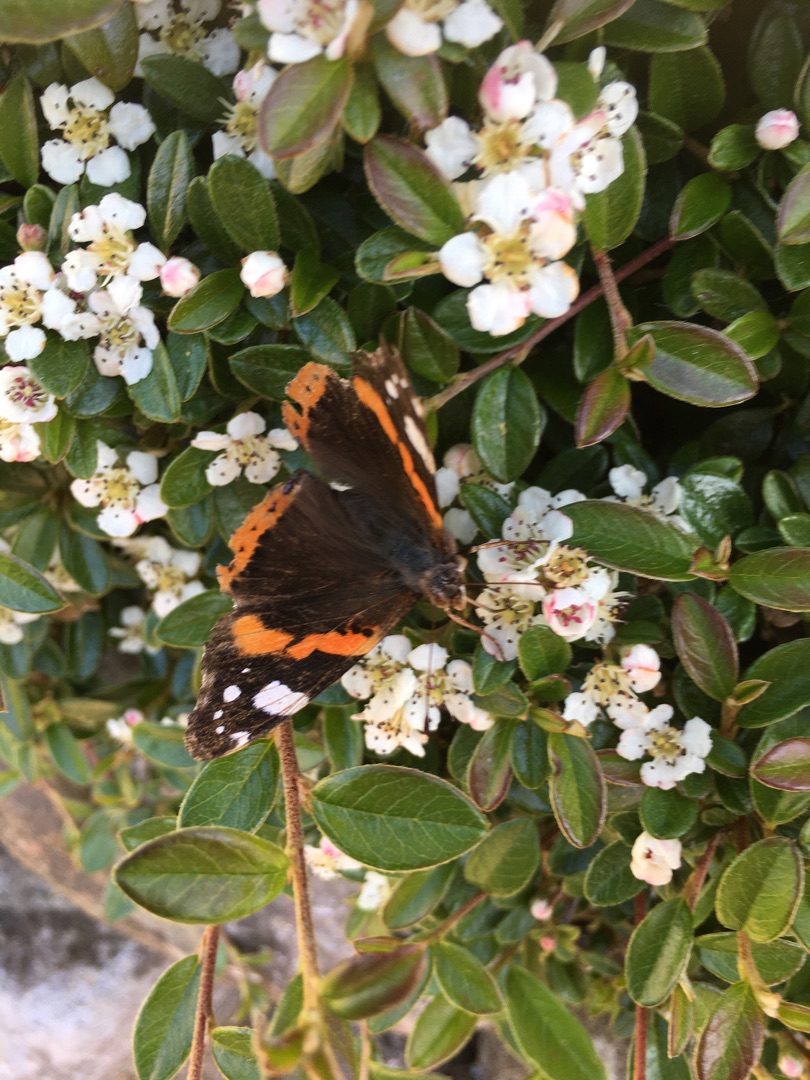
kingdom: Animalia
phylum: Arthropoda
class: Insecta
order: Lepidoptera
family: Nymphalidae
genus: Vanessa
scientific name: Vanessa atalanta
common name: Admiral
